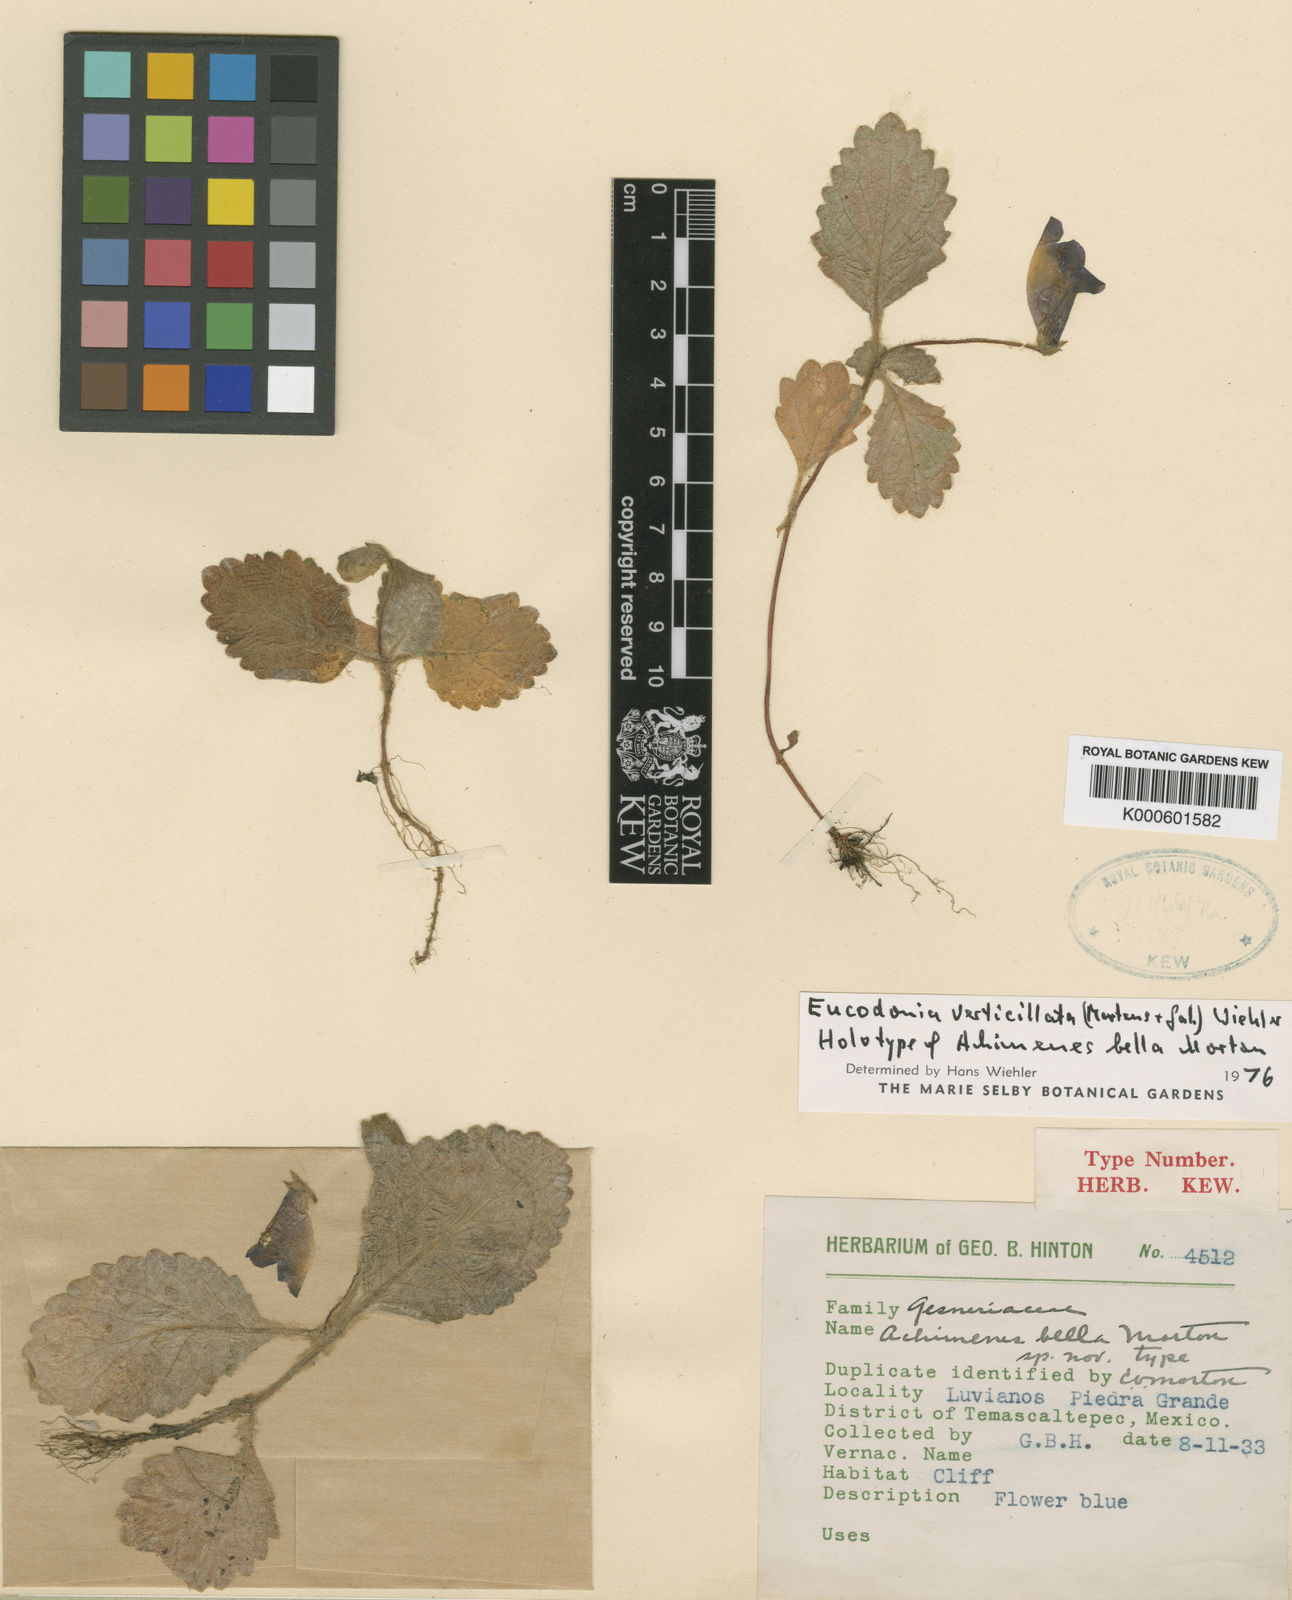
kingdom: Plantae
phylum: Tracheophyta
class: Magnoliopsida
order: Lamiales
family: Gesneriaceae
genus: Eucodonia
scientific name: Eucodonia verticillata
